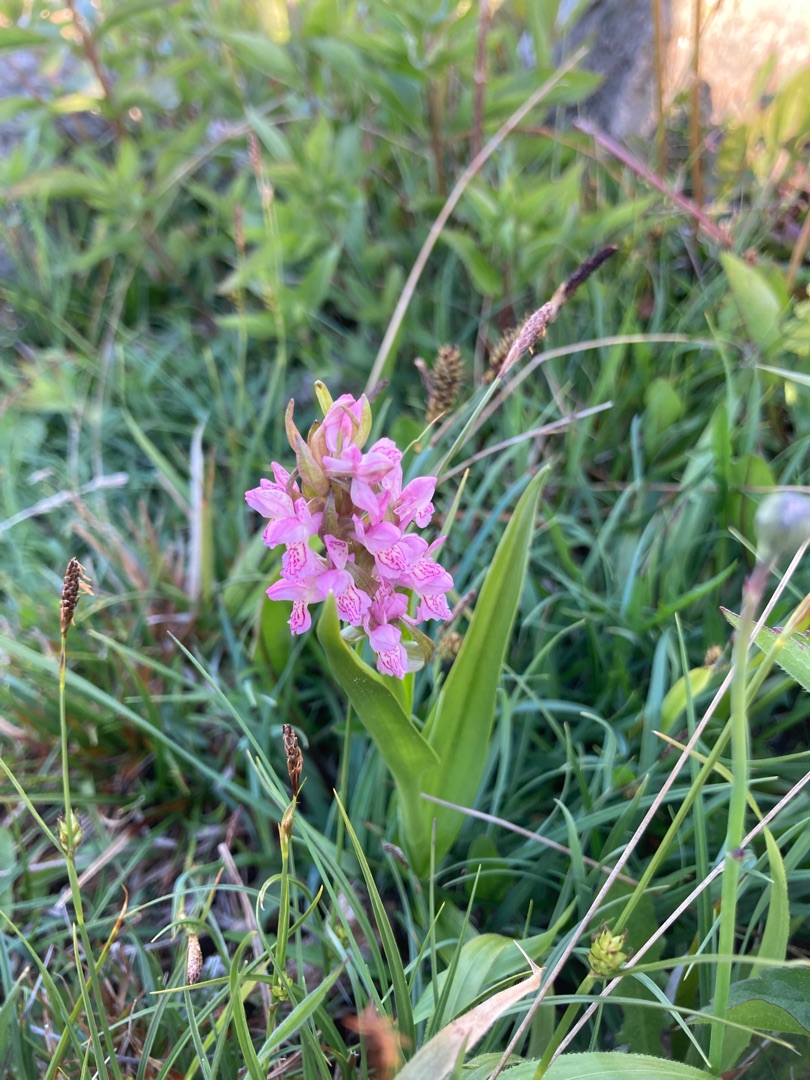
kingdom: Plantae
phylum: Tracheophyta
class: Liliopsida
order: Asparagales
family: Orchidaceae
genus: Dactylorhiza
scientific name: Dactylorhiza incarnata
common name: Kødfarvet gøgeurt
